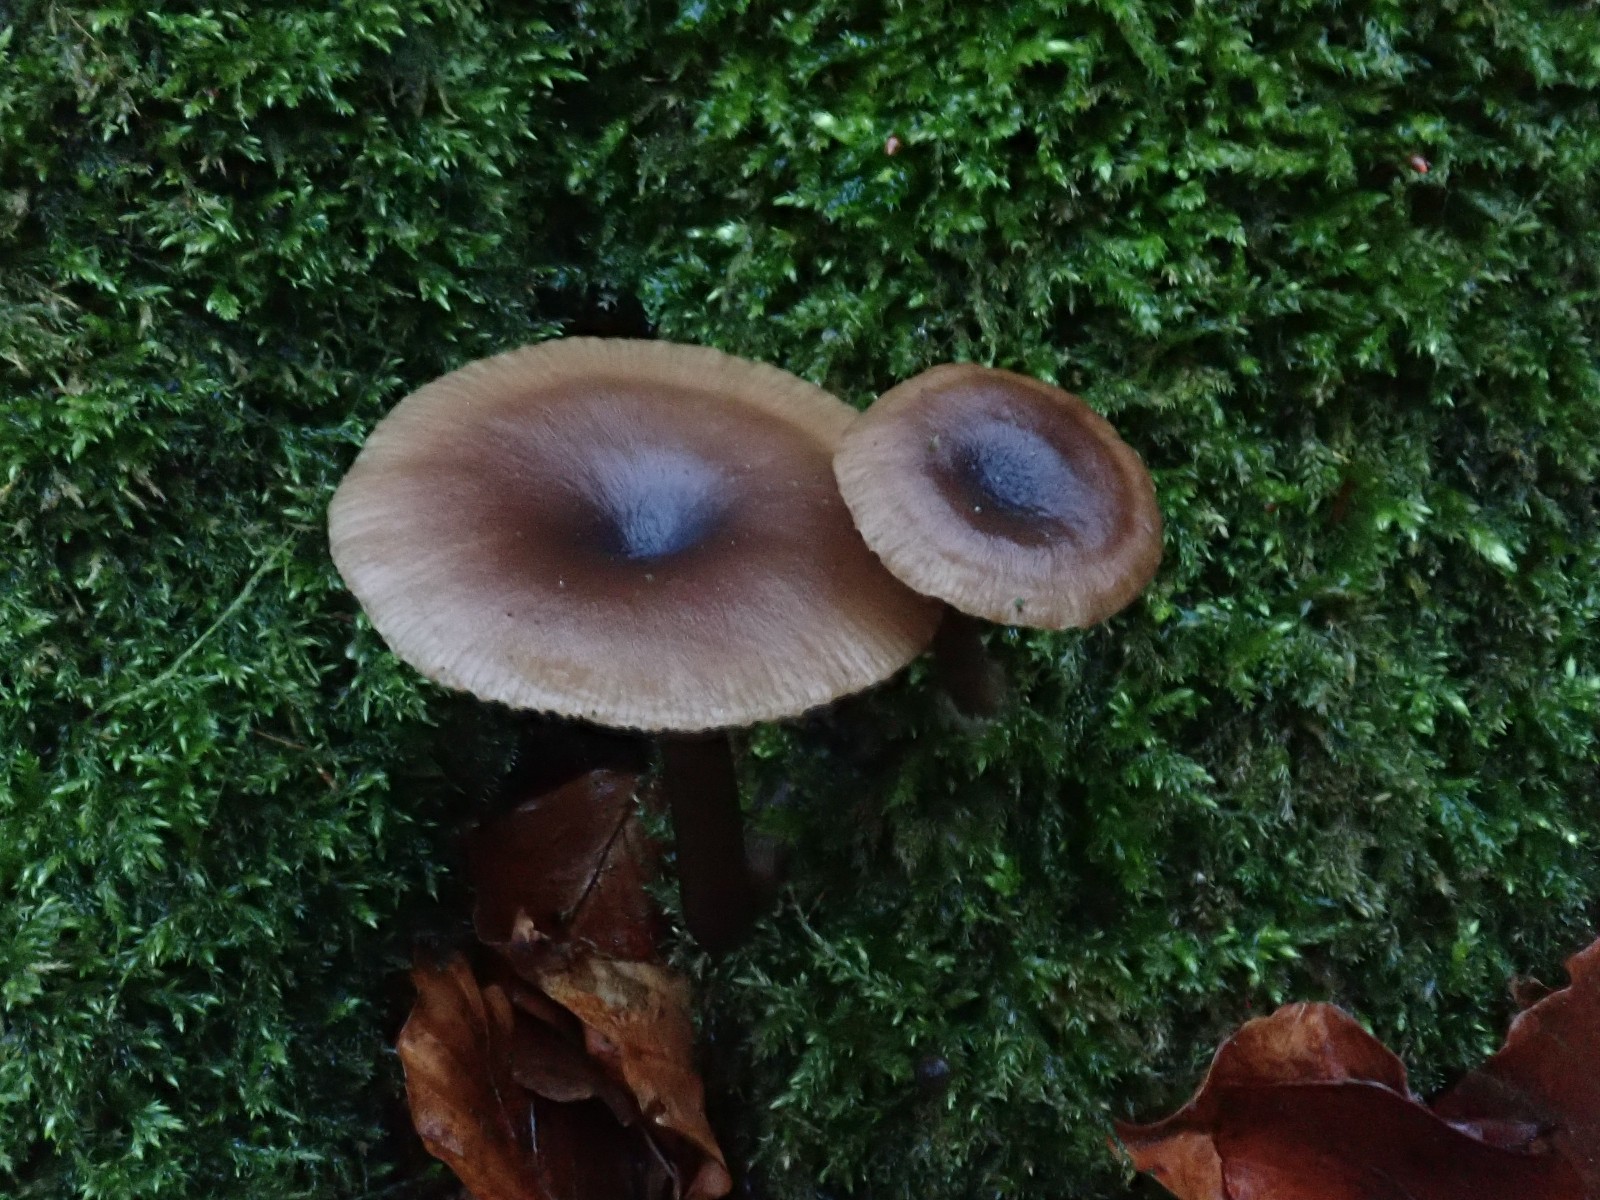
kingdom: Fungi
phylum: Basidiomycota
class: Agaricomycetes
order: Agaricales
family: Pseudoclitocybaceae
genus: Pseudoclitocybe
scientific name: Pseudoclitocybe cyathiformis
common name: almindelig bægertragthat
